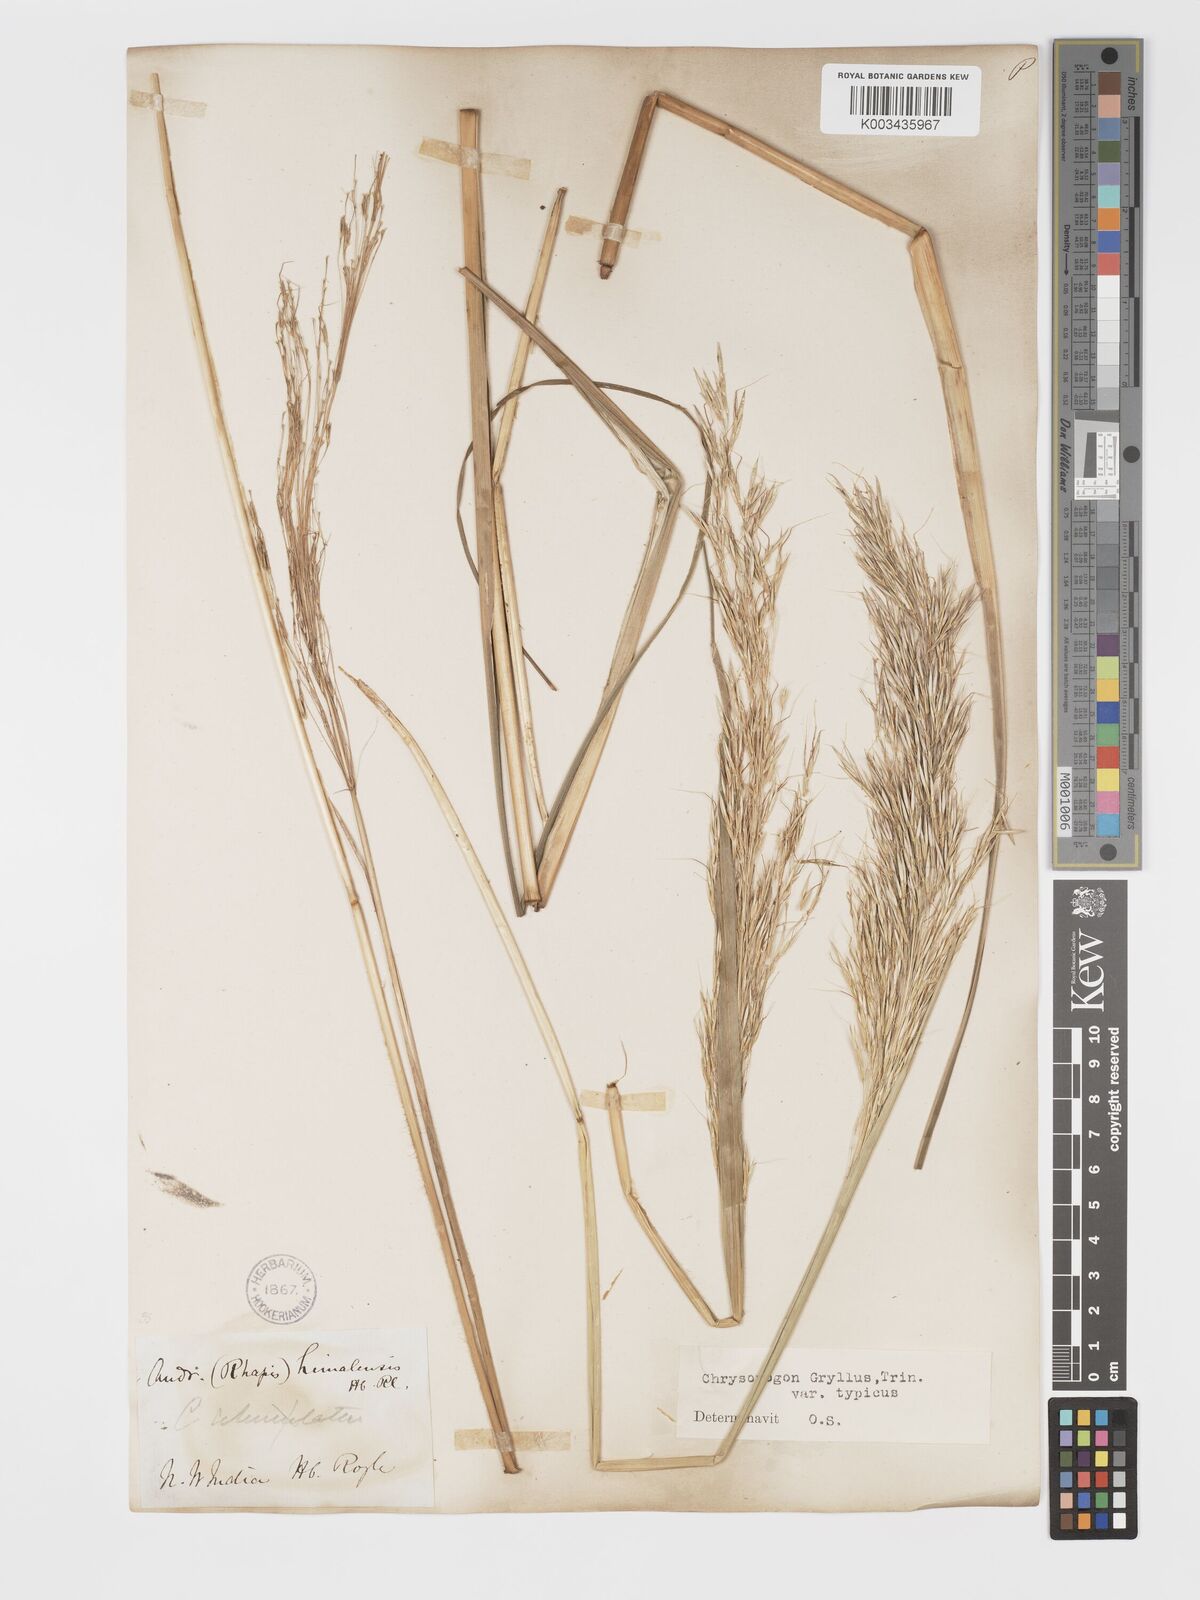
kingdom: Plantae
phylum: Tracheophyta
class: Liliopsida
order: Poales
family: Poaceae
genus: Chrysopogon
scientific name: Chrysopogon gryllus
